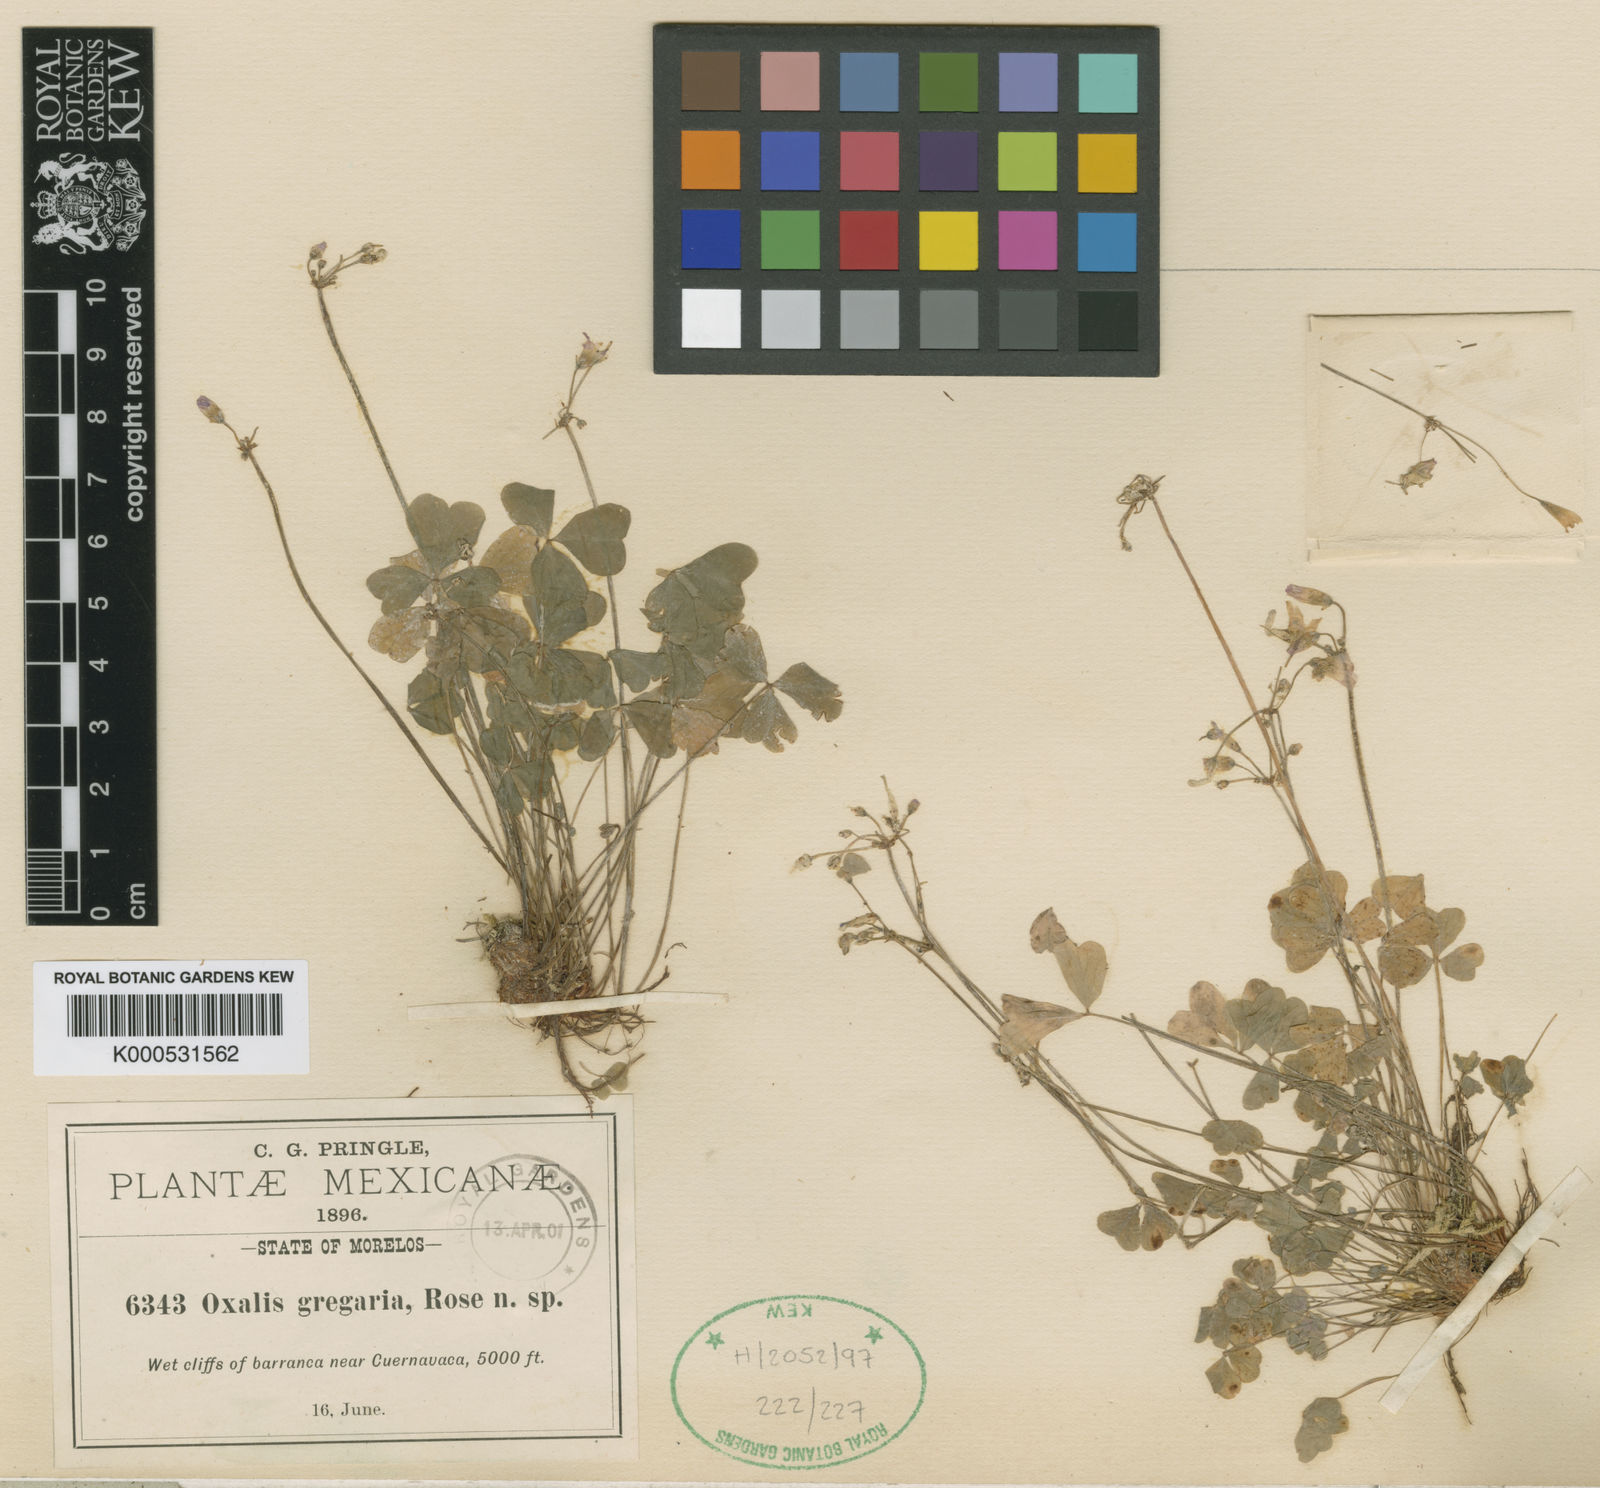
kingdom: Plantae
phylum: Tracheophyta
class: Magnoliopsida
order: Oxalidales
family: Oxalidaceae
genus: Oxalis
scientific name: Oxalis dimidiata
